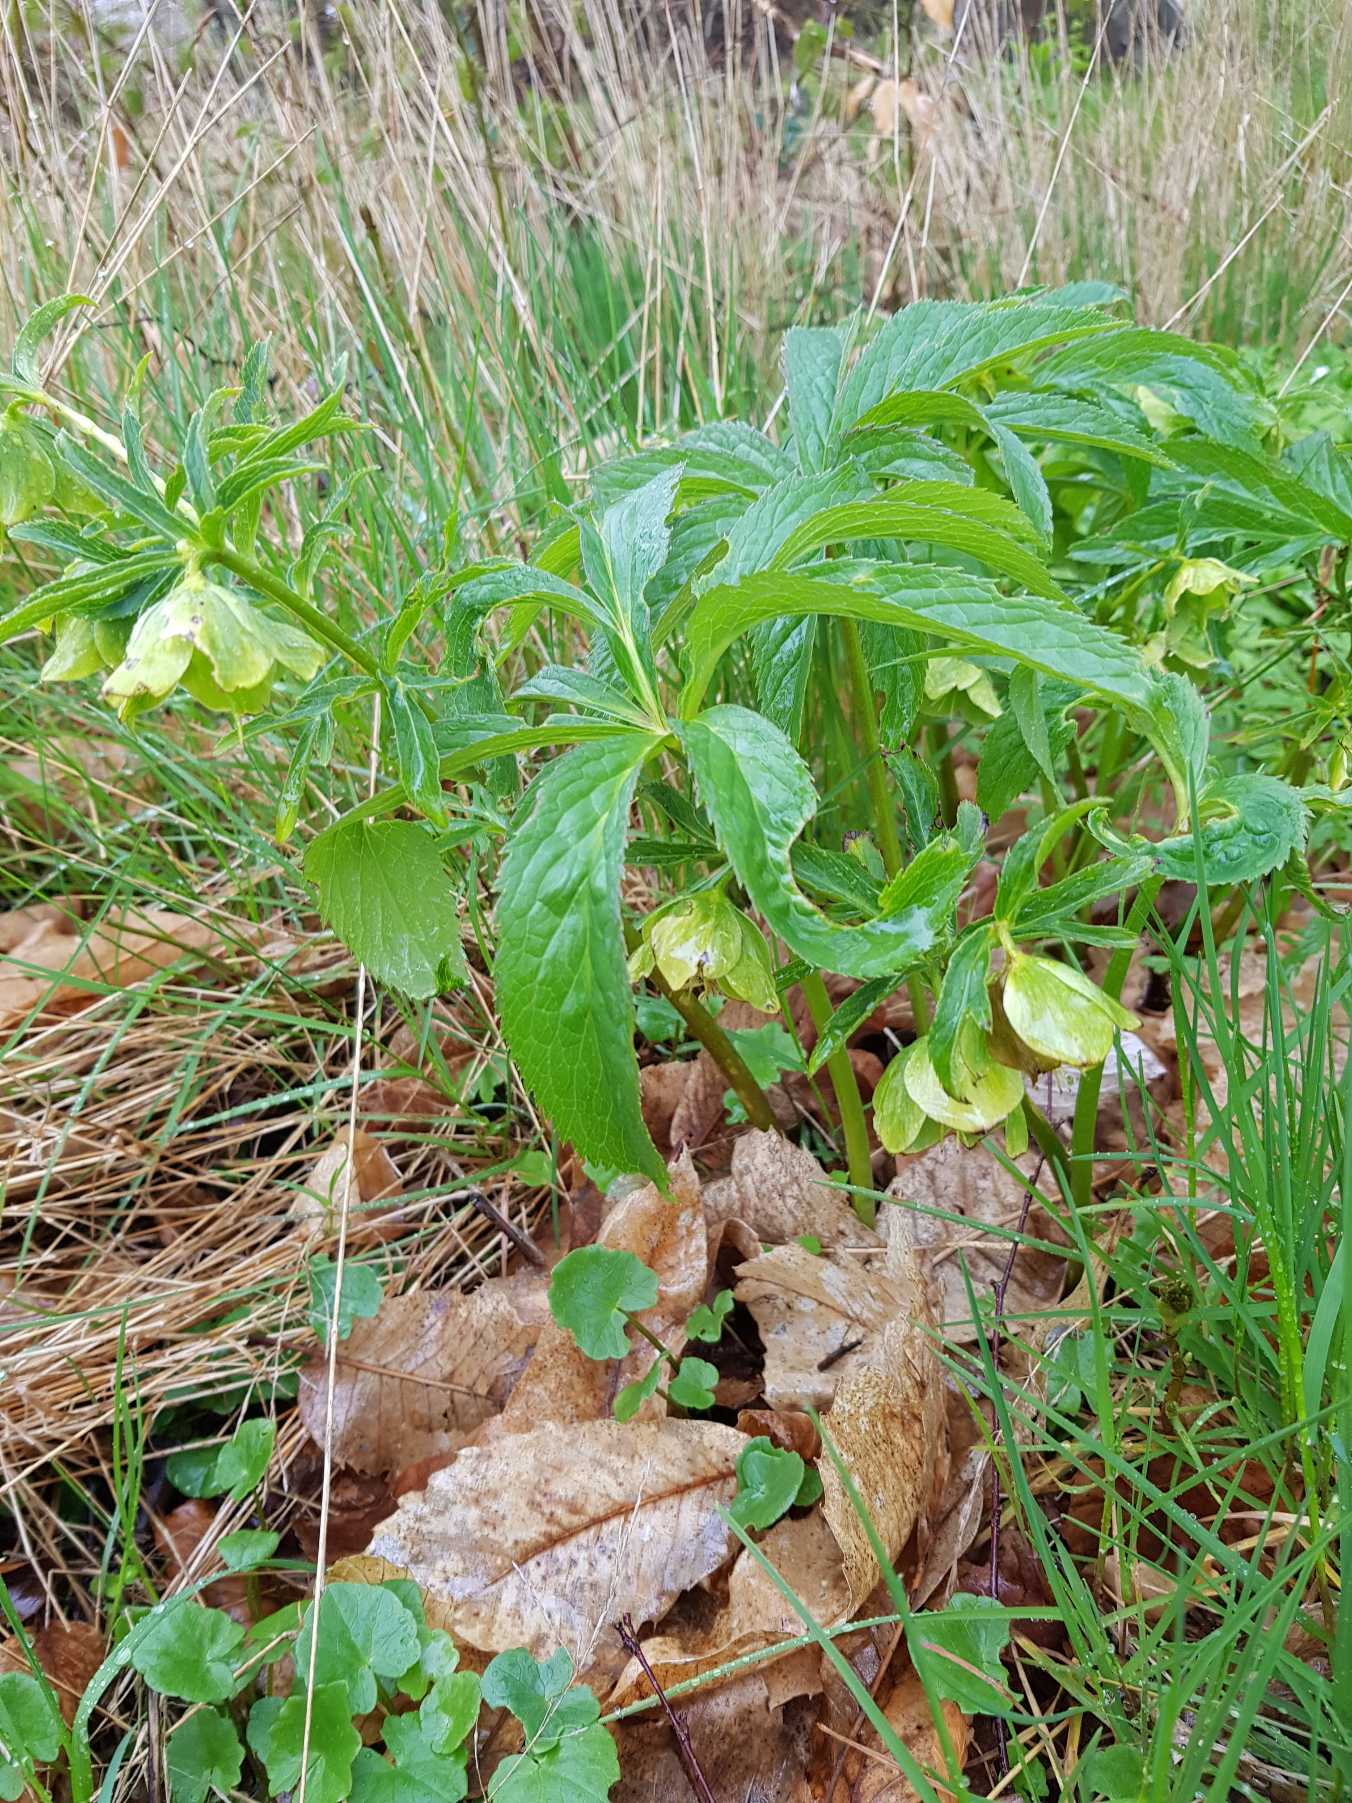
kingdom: Plantae
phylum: Tracheophyta
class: Magnoliopsida
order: Ranunculales
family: Ranunculaceae
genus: Helleborus
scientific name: Helleborus viridis
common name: Grøn julerose
